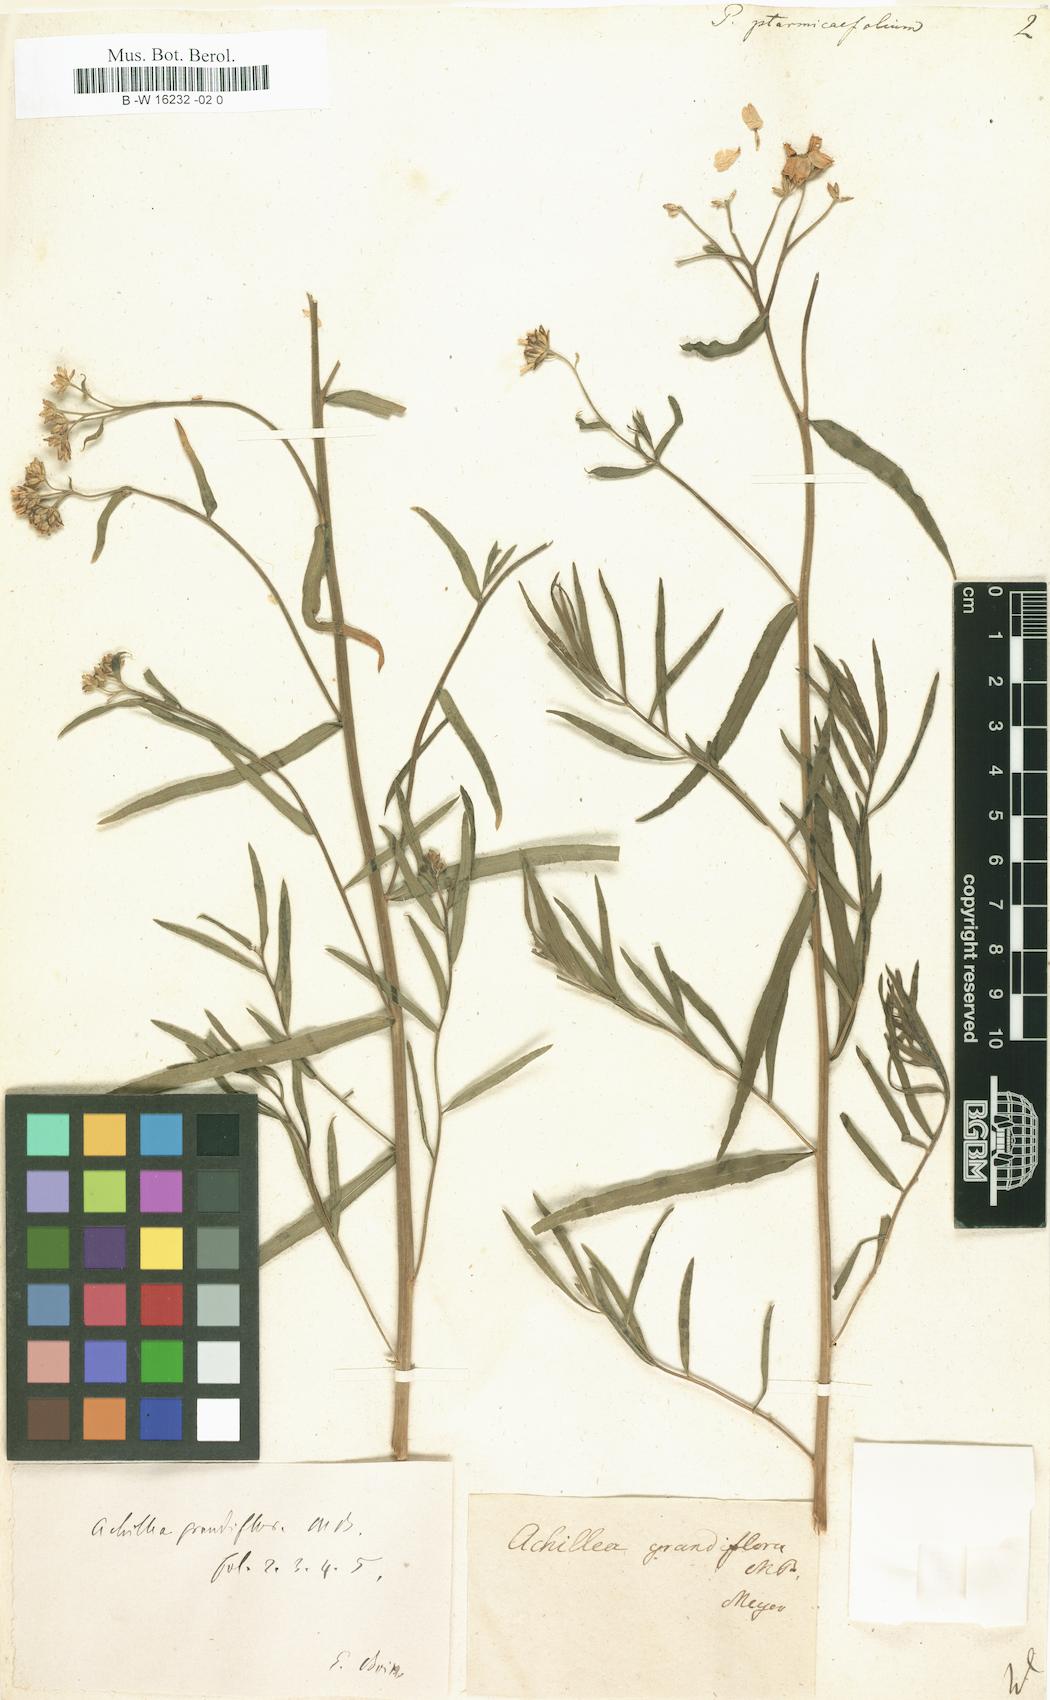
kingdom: Plantae
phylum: Tracheophyta
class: Magnoliopsida
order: Asterales
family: Asteraceae
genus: Achillea
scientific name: Achillea ptarmicifolia
